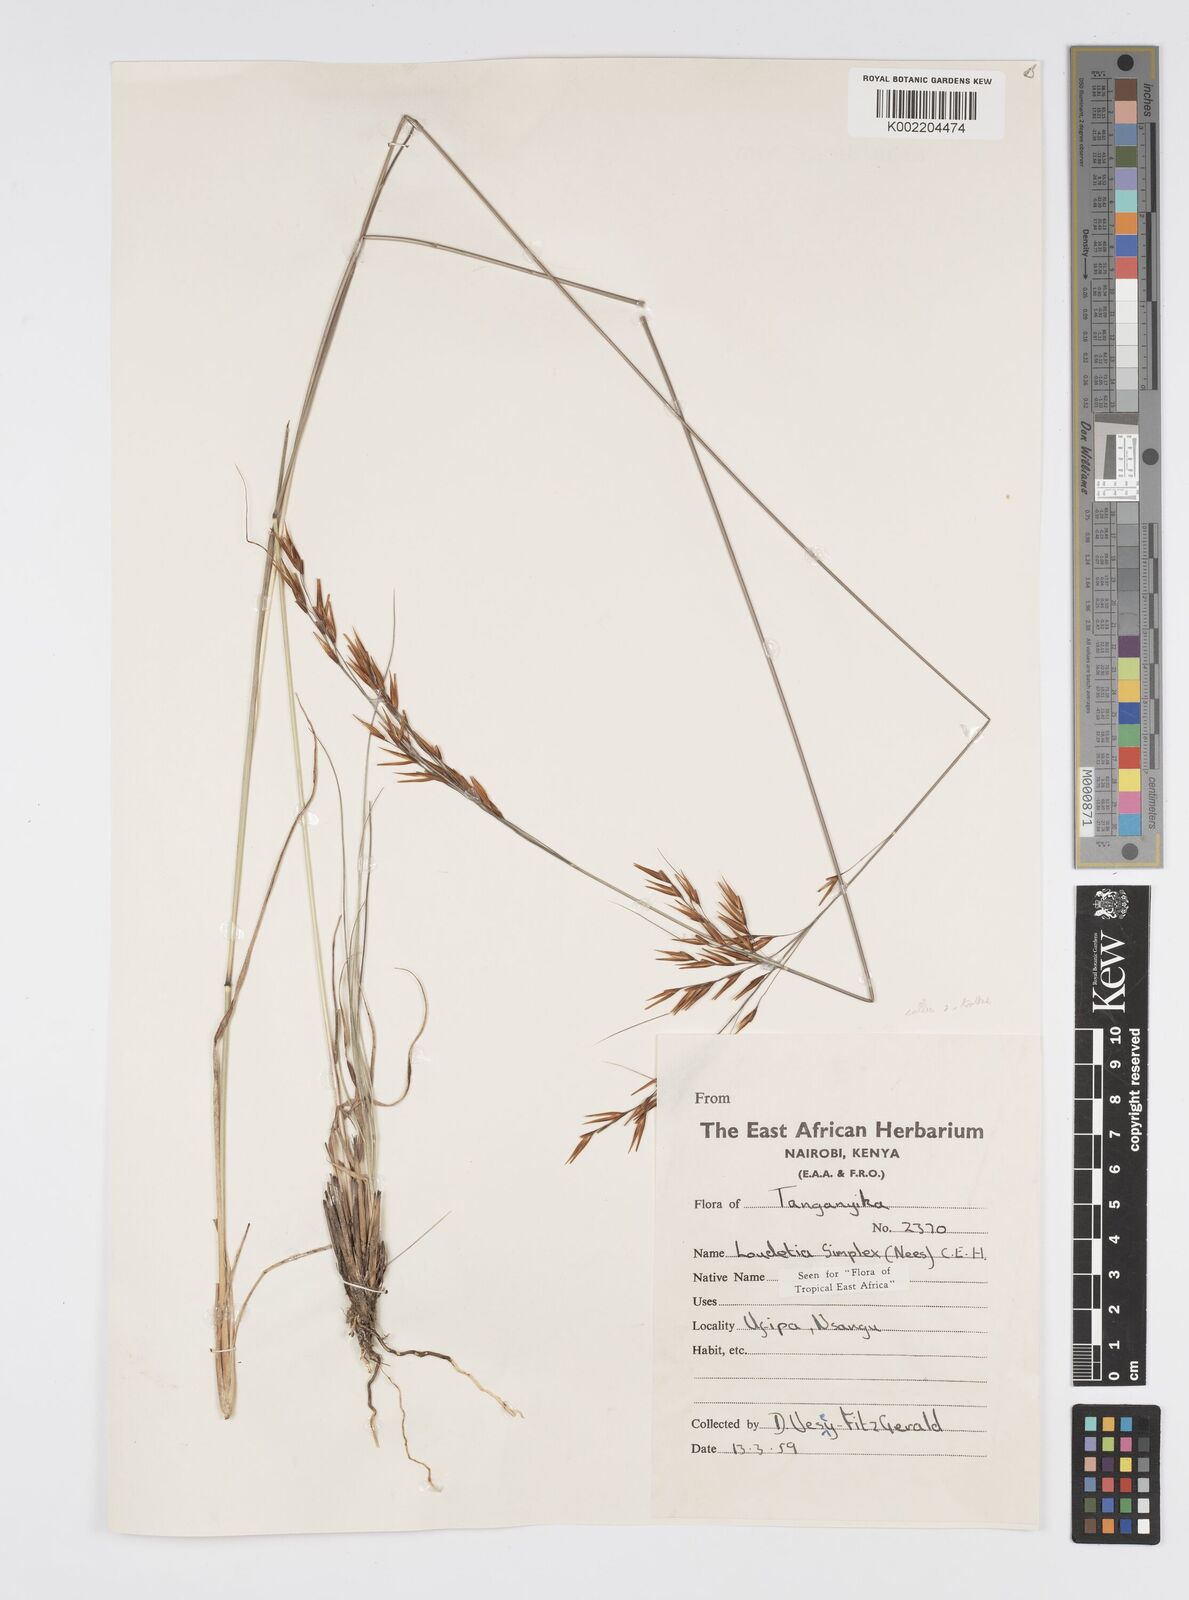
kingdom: Plantae
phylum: Tracheophyta
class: Liliopsida
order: Poales
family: Poaceae
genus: Loudetia
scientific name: Loudetia simplex
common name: Common russet grass
